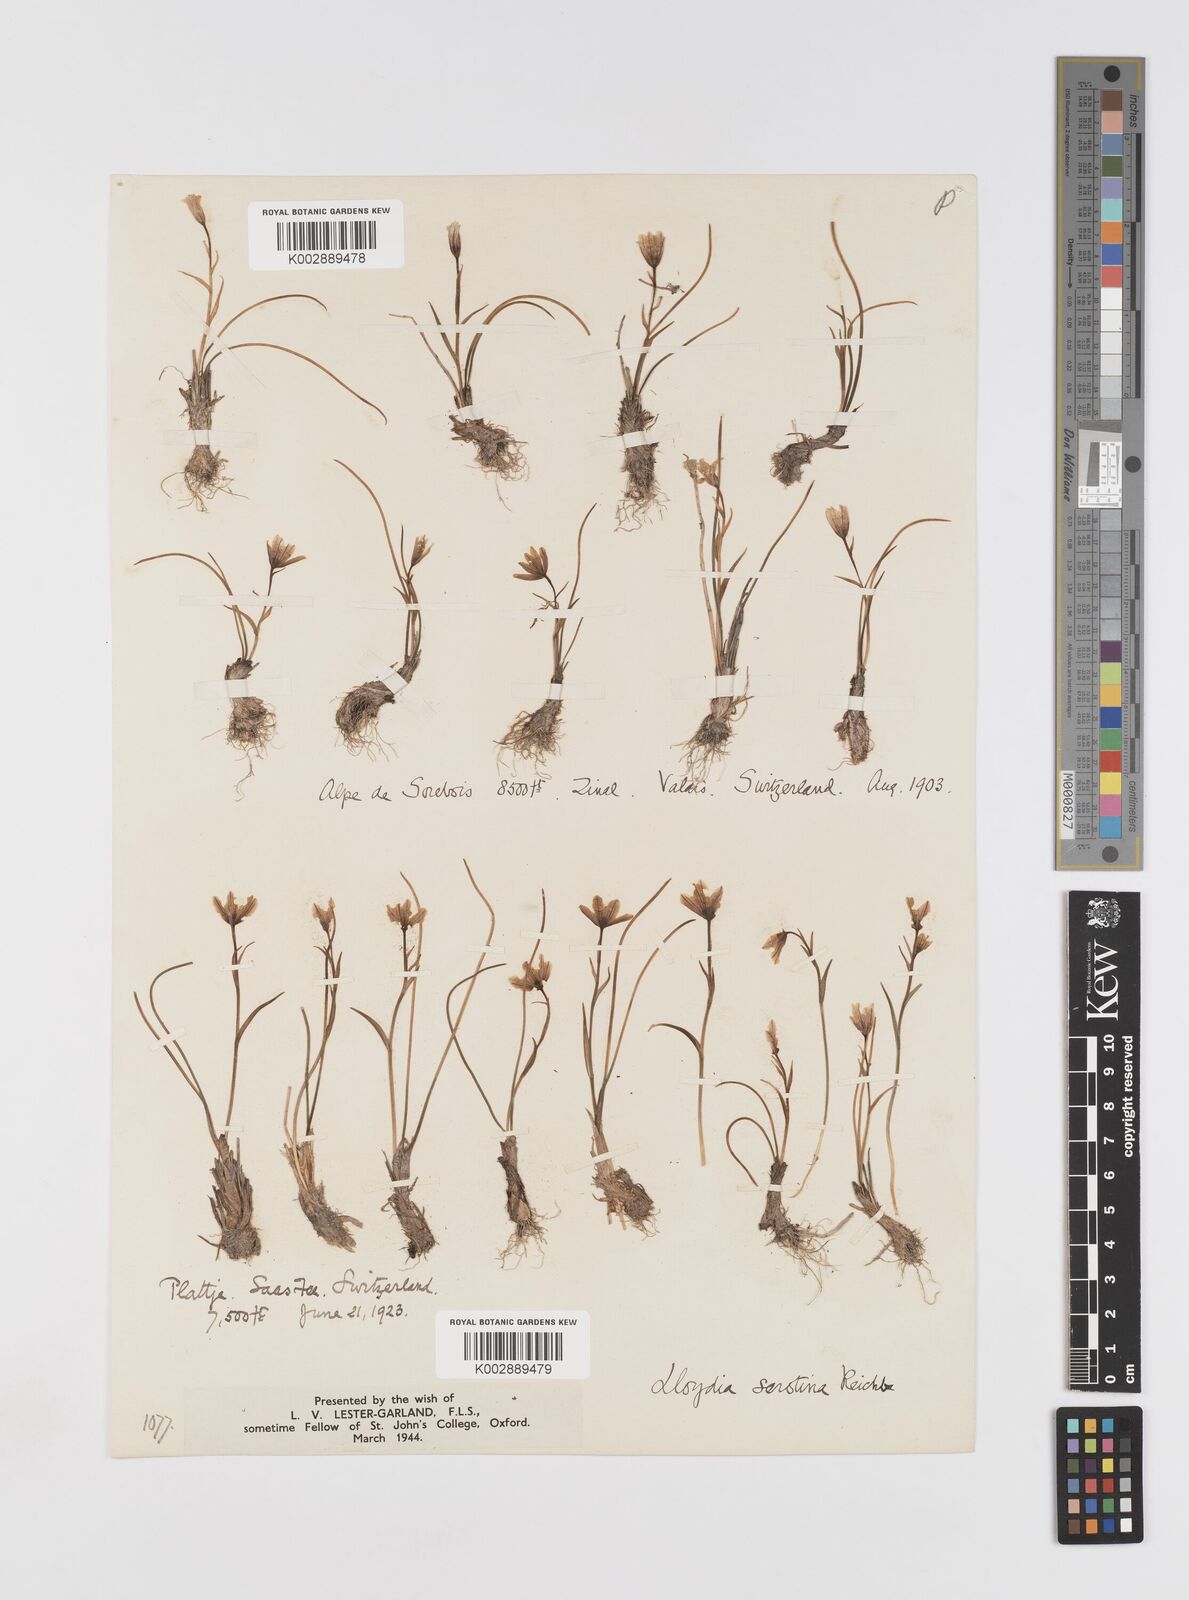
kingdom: Plantae
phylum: Tracheophyta
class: Liliopsida
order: Liliales
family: Liliaceae
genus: Gagea
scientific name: Gagea
